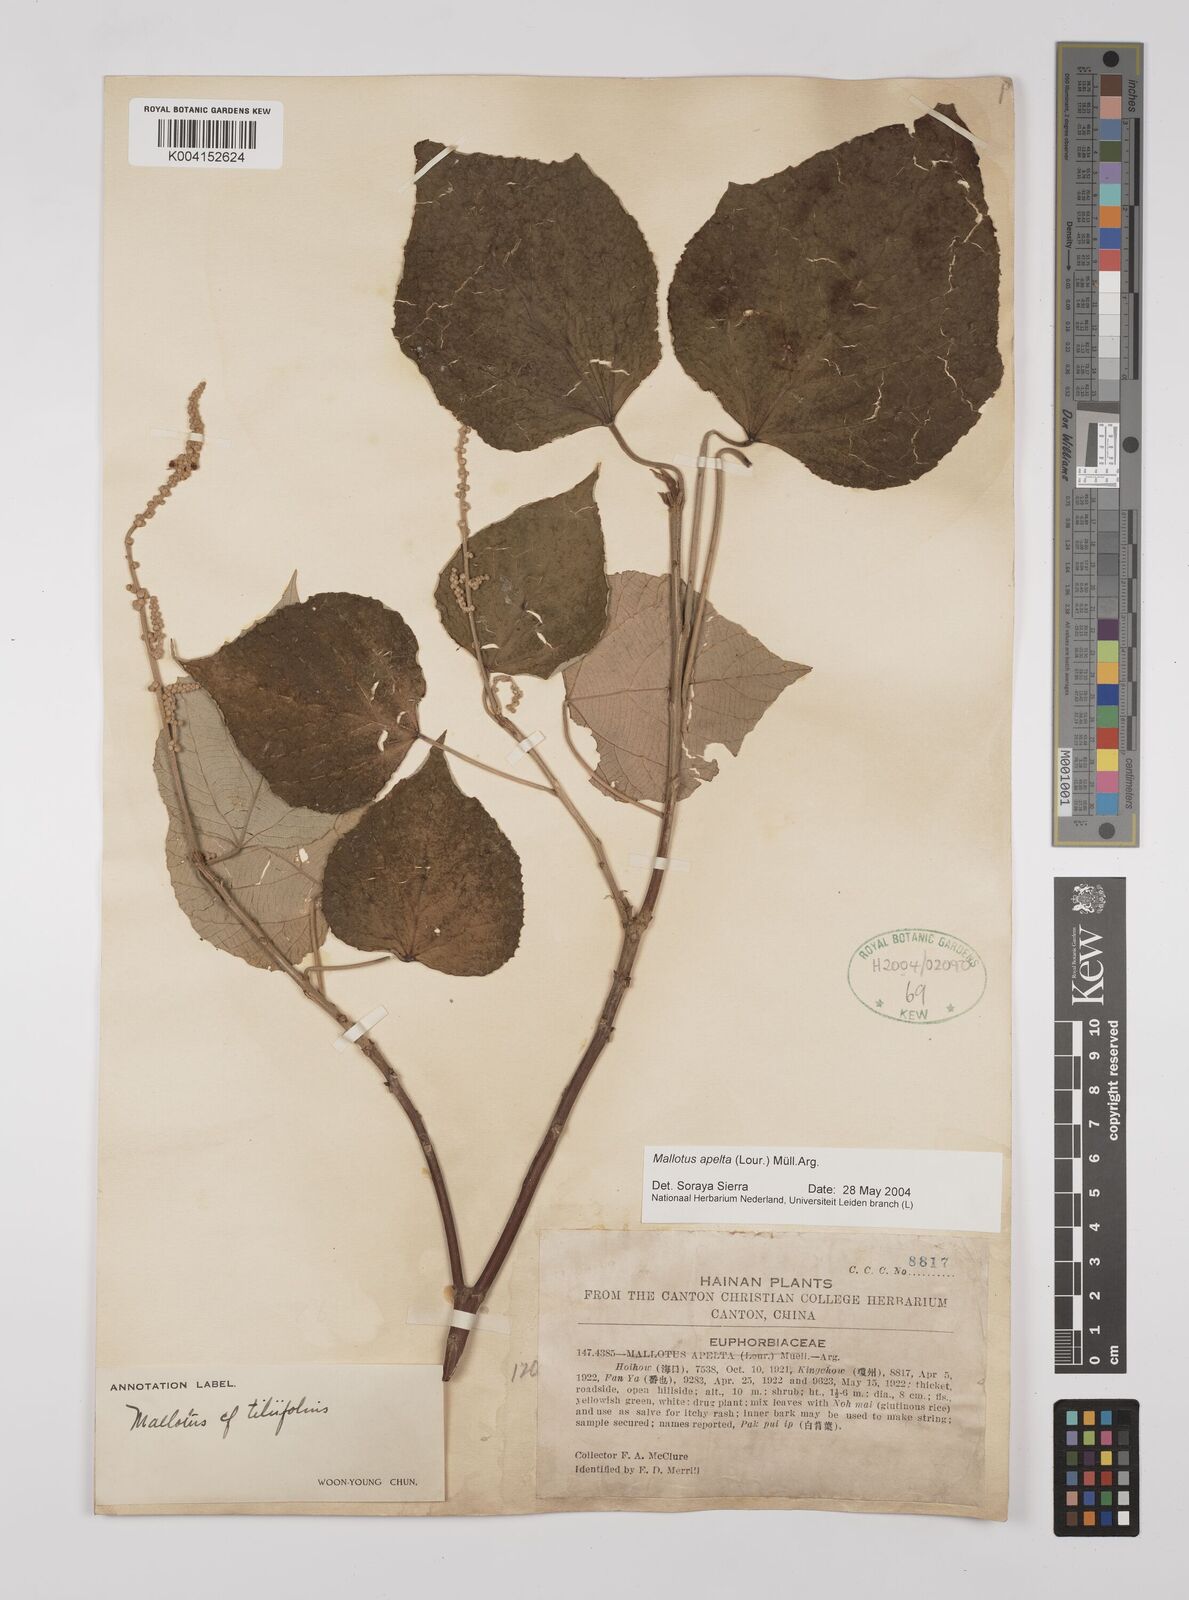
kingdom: Plantae
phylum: Tracheophyta
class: Magnoliopsida
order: Malpighiales
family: Euphorbiaceae
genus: Mallotus
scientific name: Mallotus apelta
